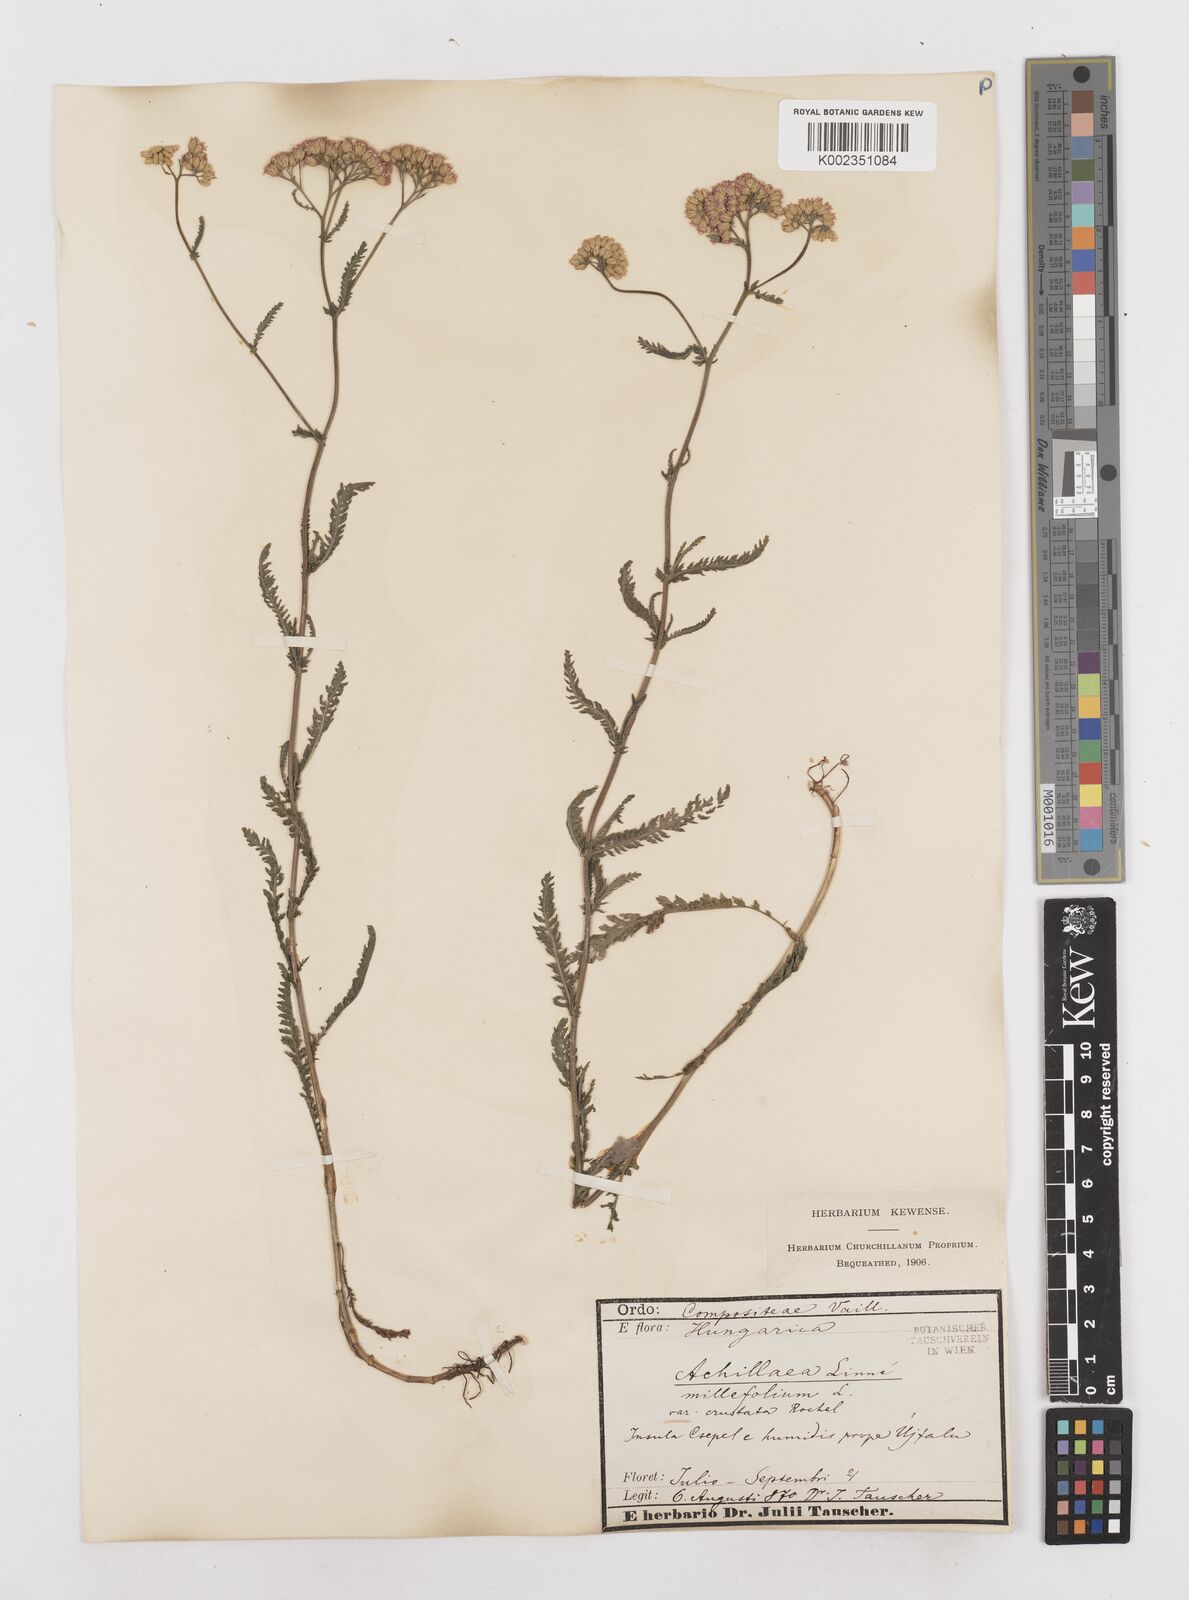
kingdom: Plantae
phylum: Tracheophyta
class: Magnoliopsida
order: Asterales
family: Asteraceae
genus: Achillea
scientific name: Achillea millefolium
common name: Yarrow
